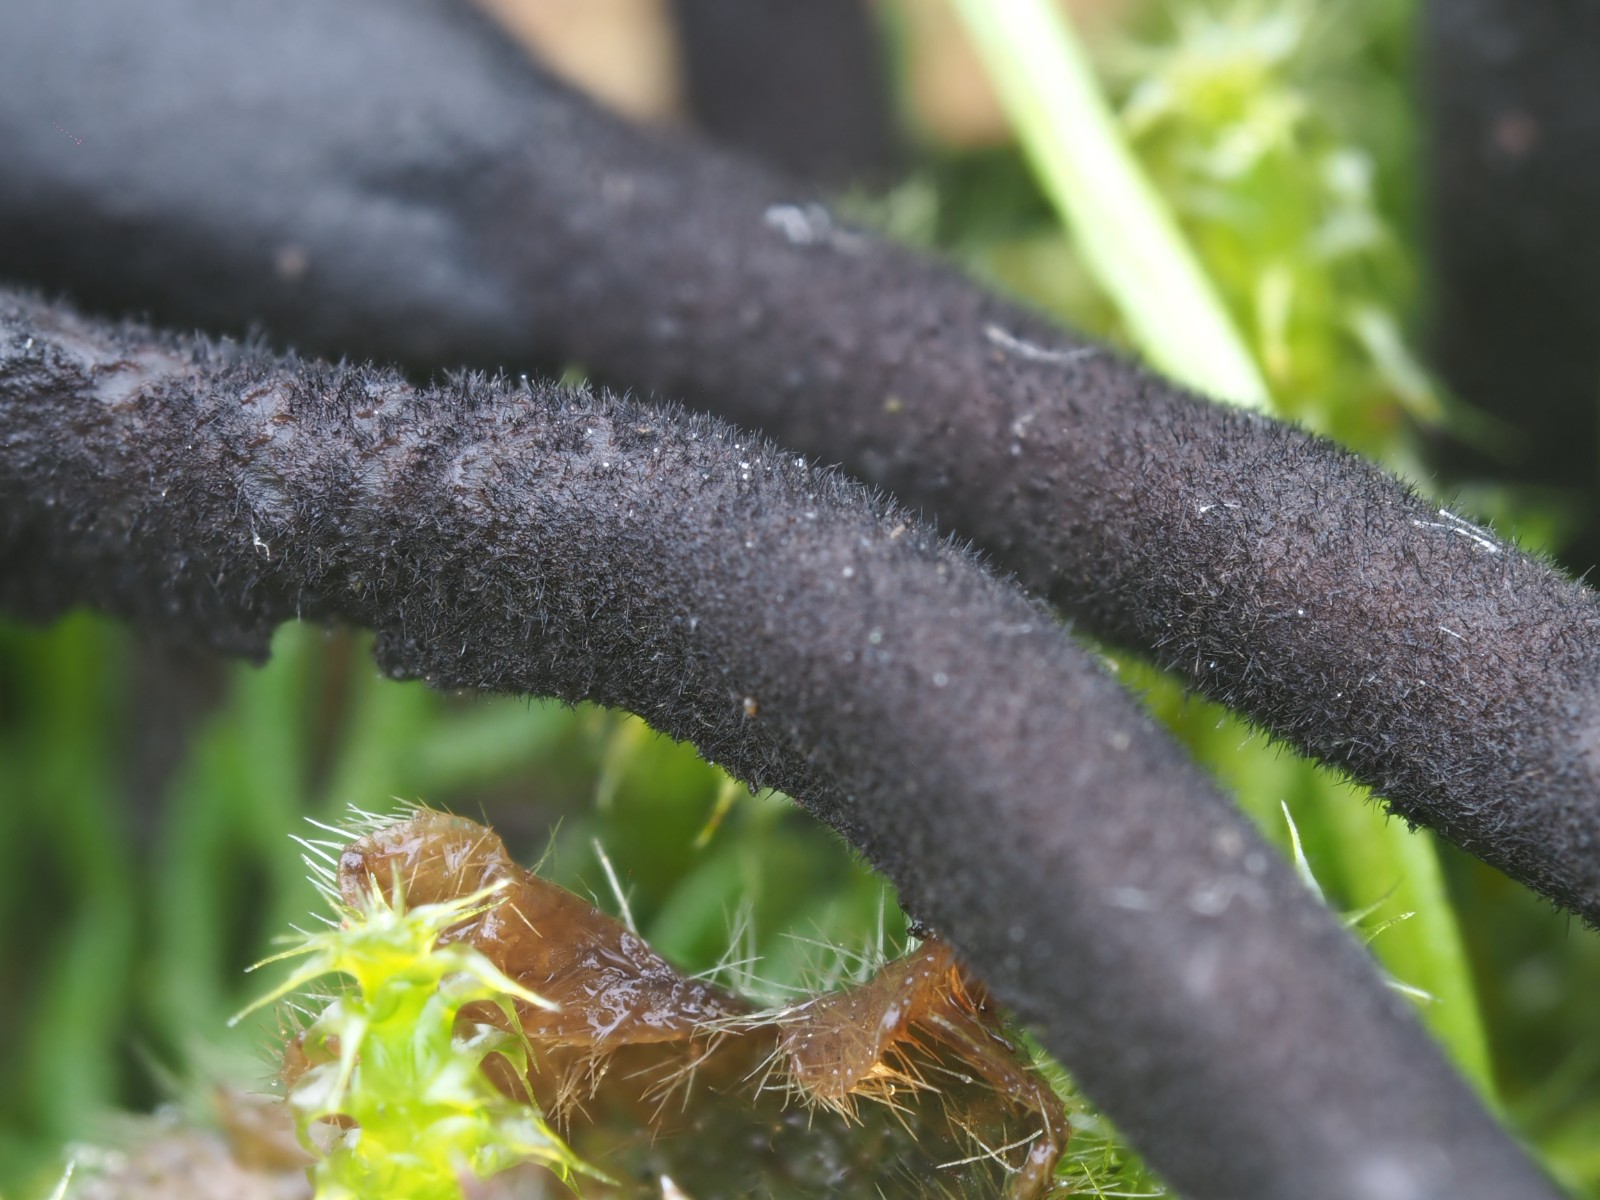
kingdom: Fungi
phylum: Ascomycota
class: Geoglossomycetes
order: Geoglossales
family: Geoglossaceae
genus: Trichoglossum
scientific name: Trichoglossum
